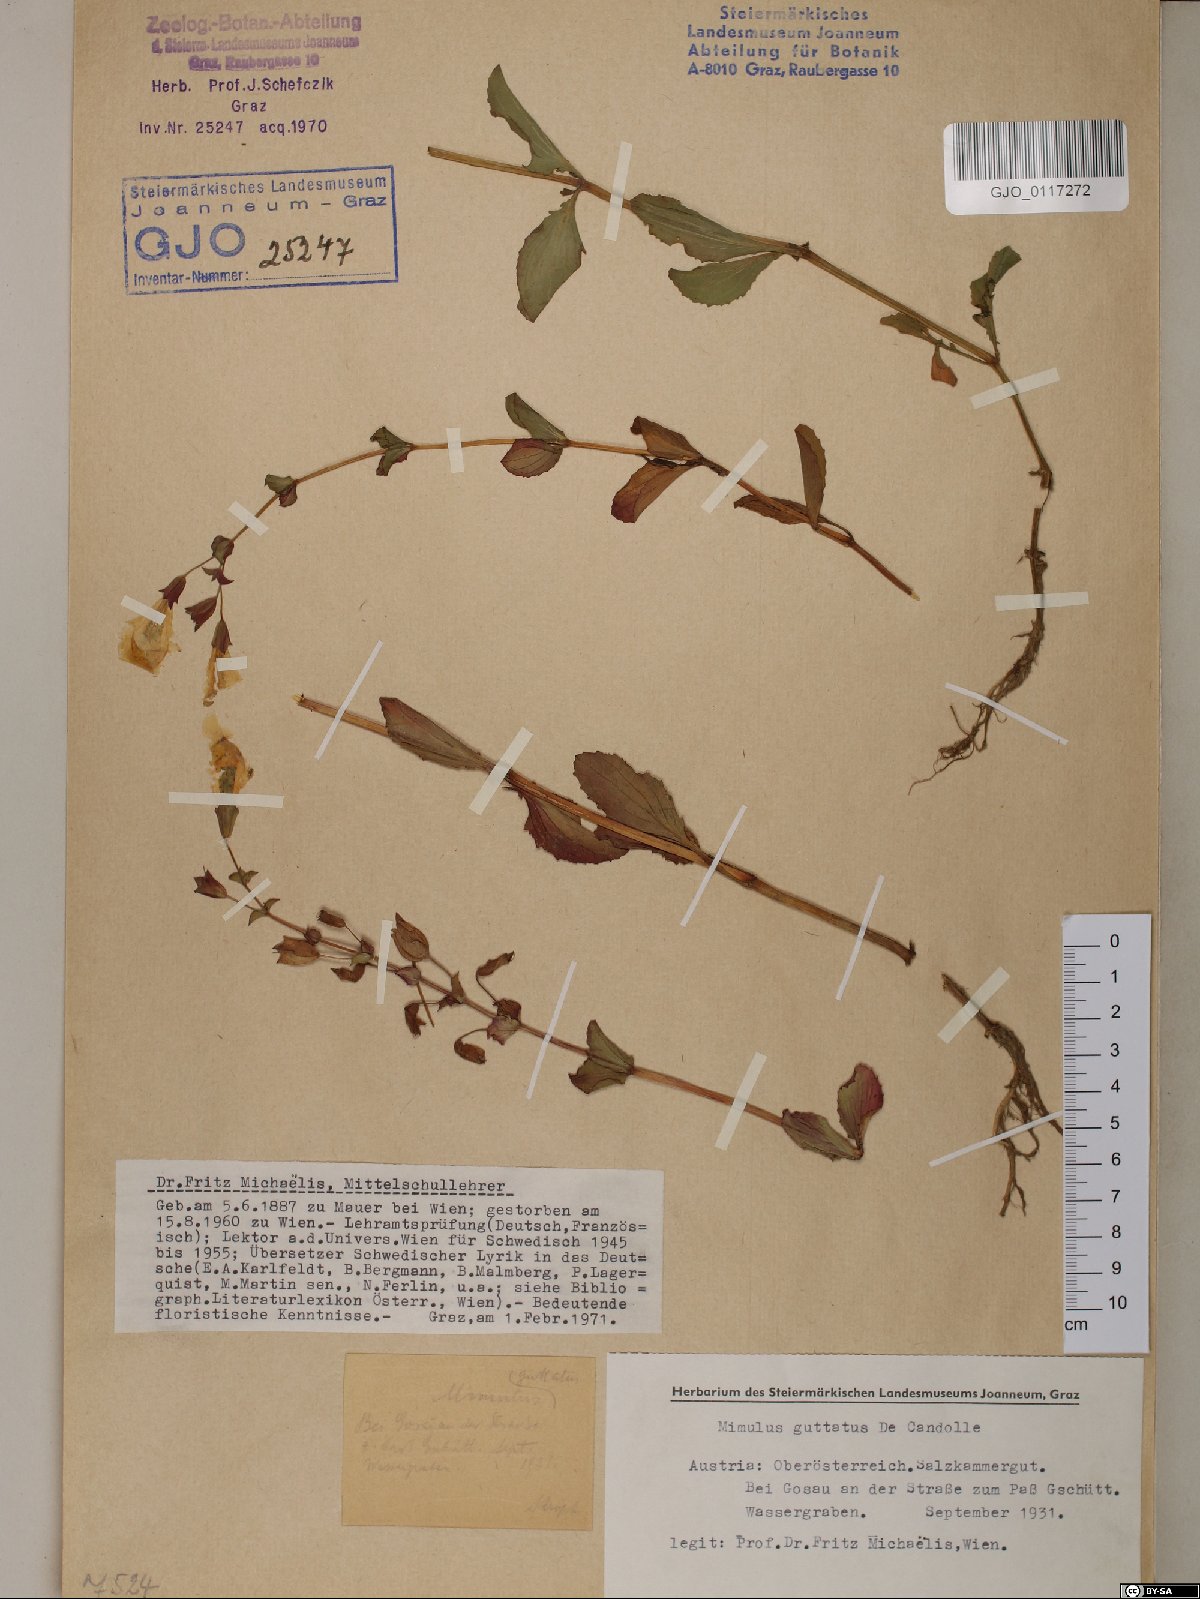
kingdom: Plantae
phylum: Tracheophyta
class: Magnoliopsida
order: Lamiales
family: Phrymaceae
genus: Erythranthe
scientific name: Erythranthe guttata
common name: Monkeyflower
